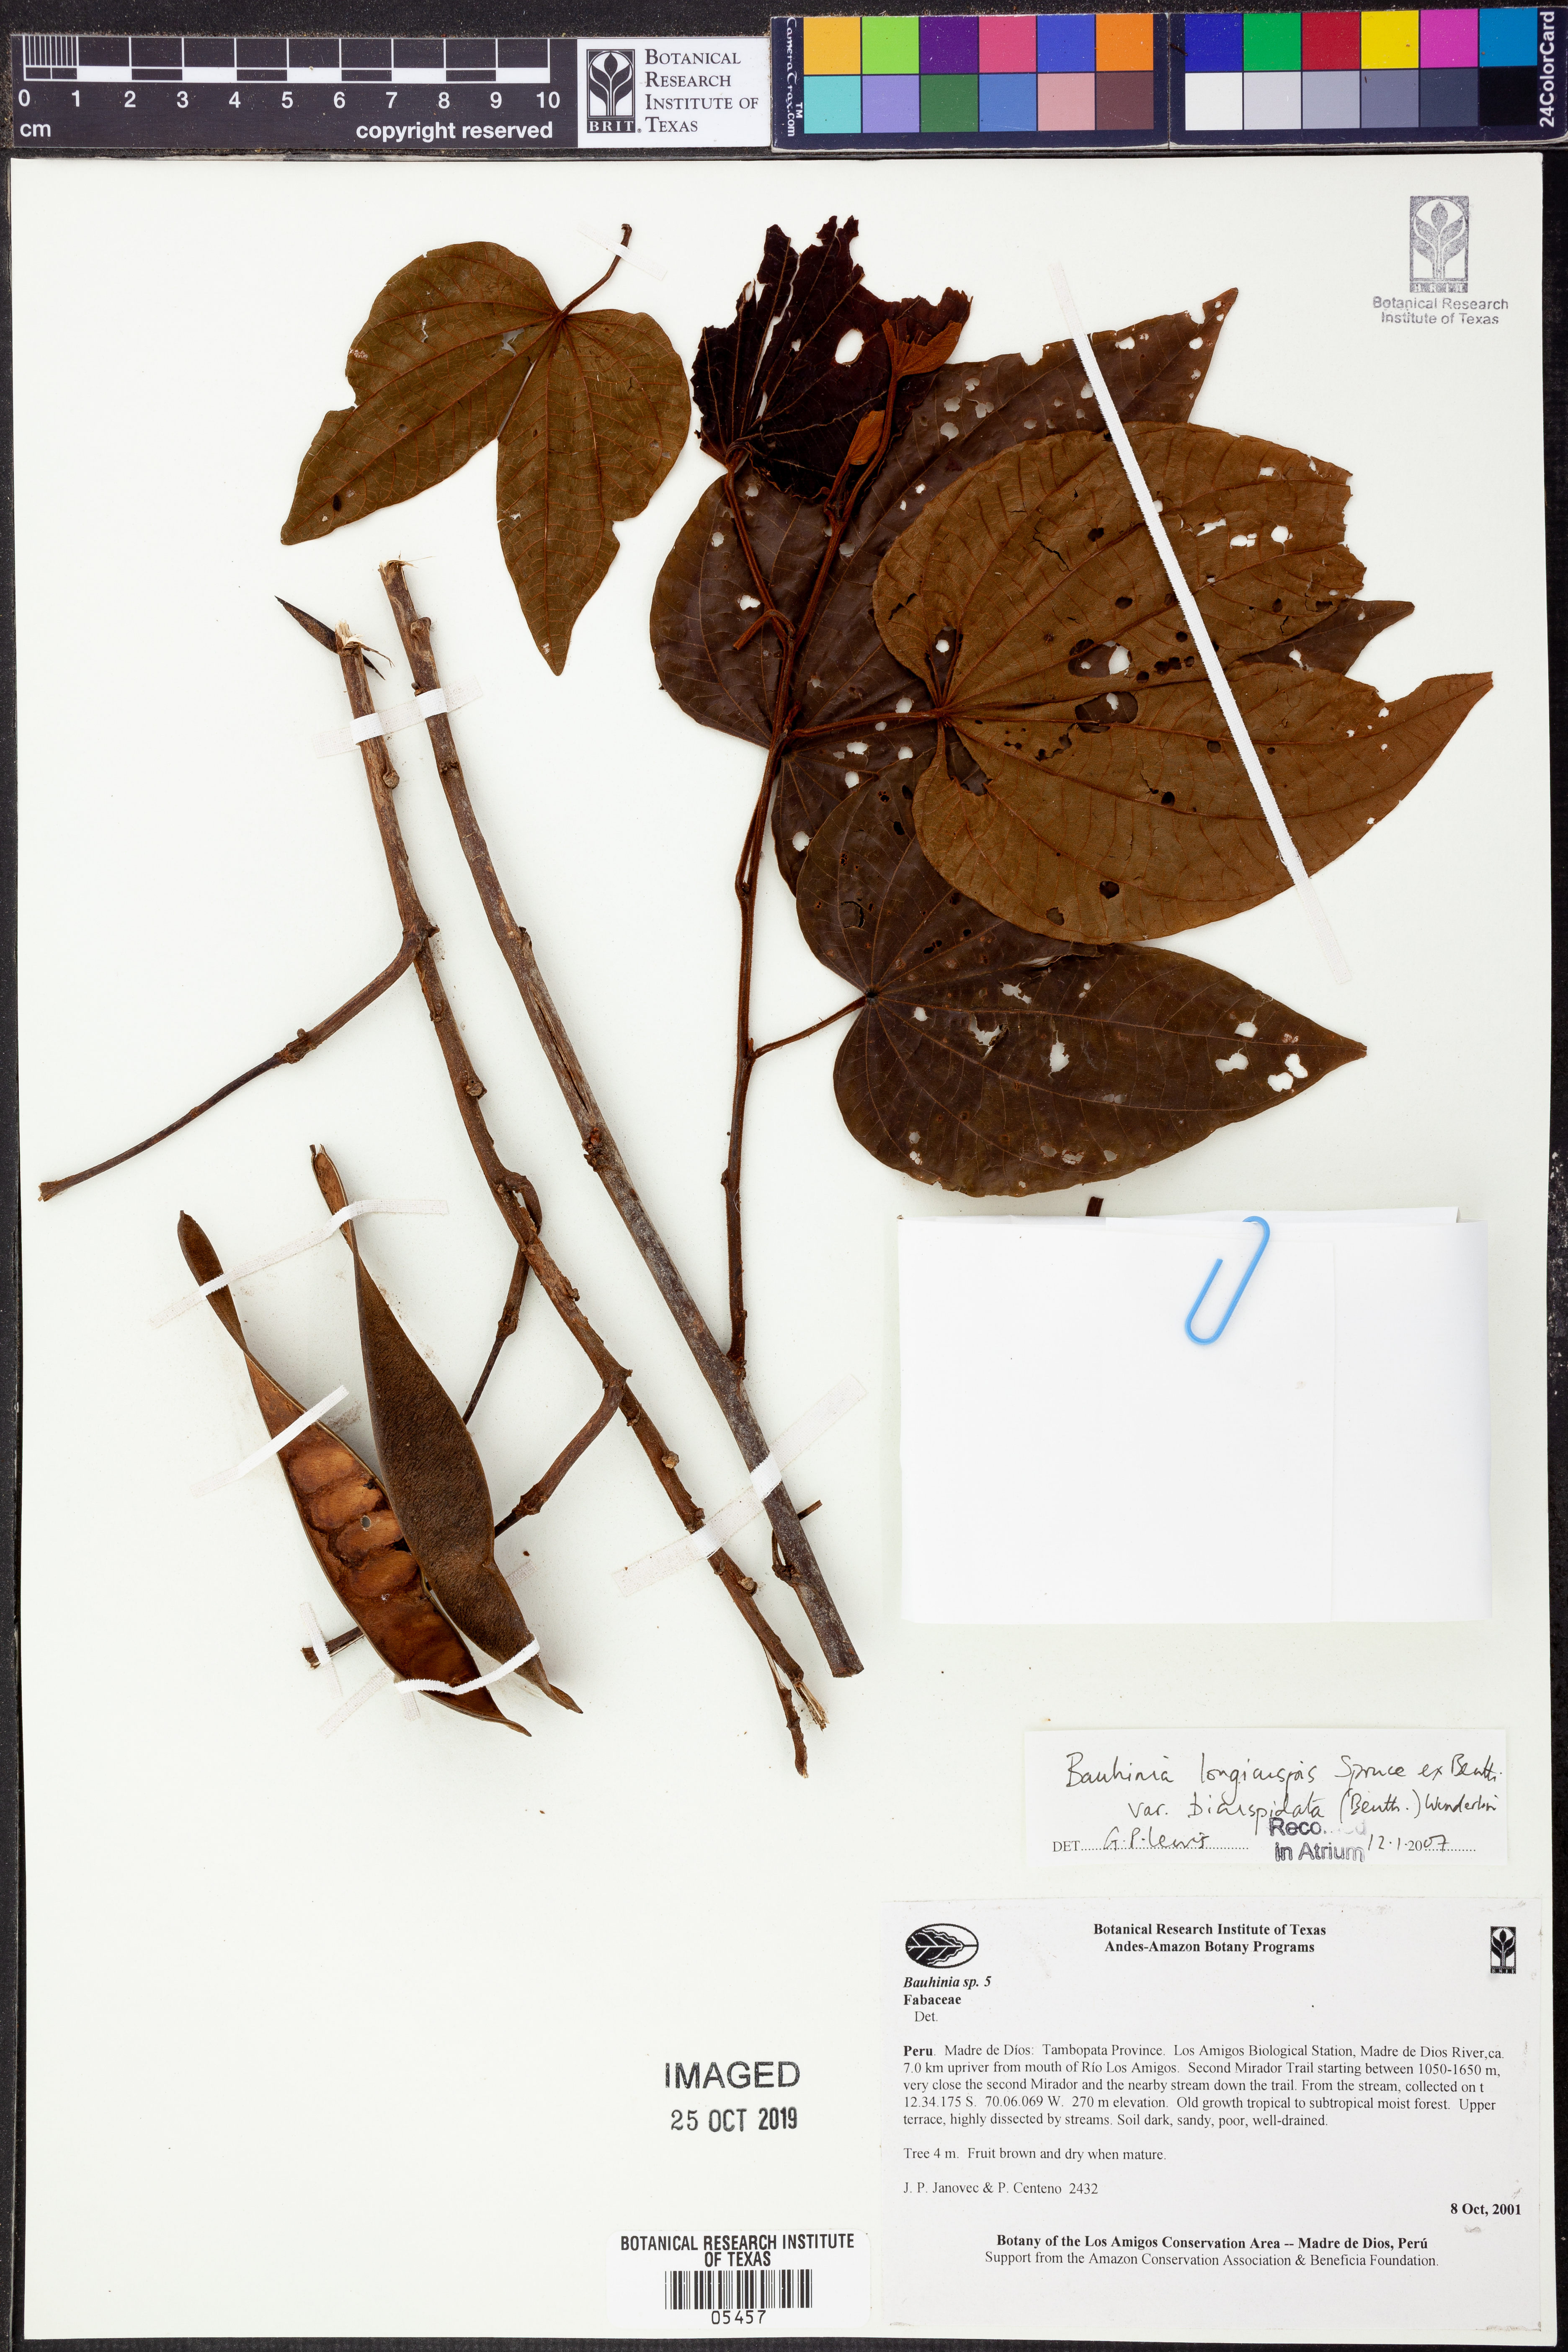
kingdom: Plantae
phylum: Tracheophyta
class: Magnoliopsida
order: Fabales
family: Fabaceae
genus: Bauhinia
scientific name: Bauhinia
